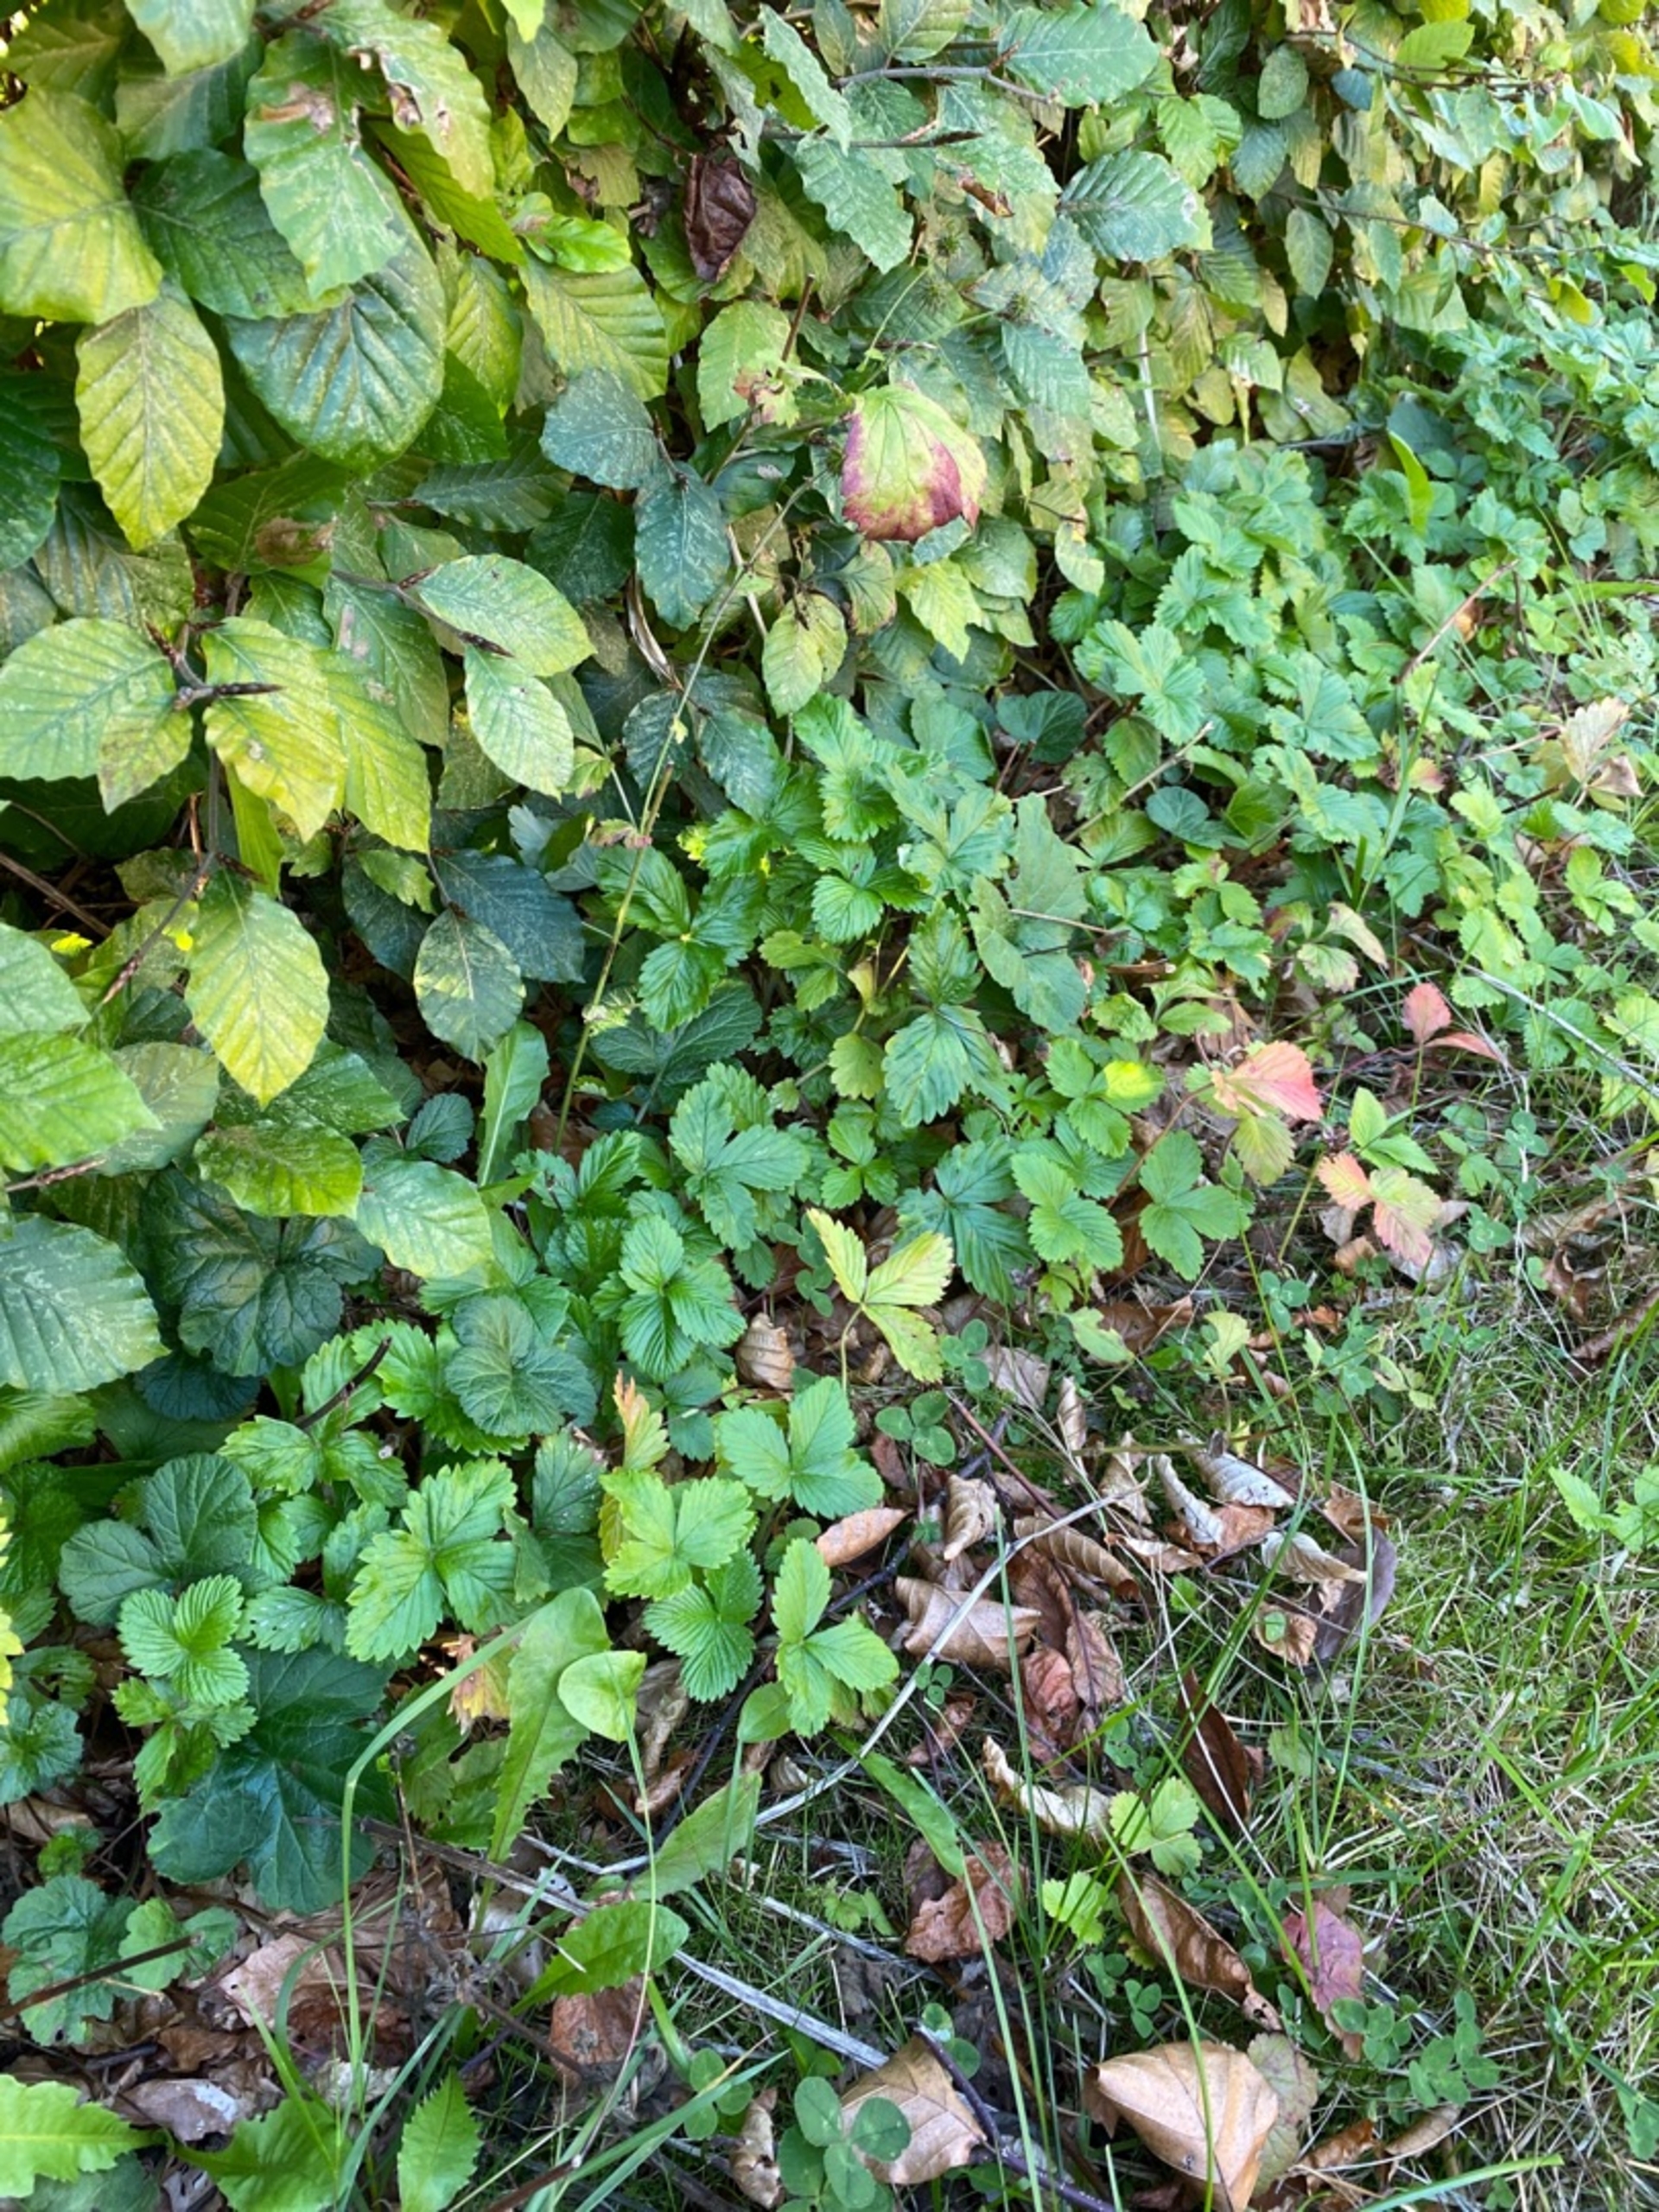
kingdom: Plantae
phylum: Tracheophyta
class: Magnoliopsida
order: Rosales
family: Rosaceae
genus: Fragaria
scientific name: Fragaria vesca
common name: Skov-jordbær
